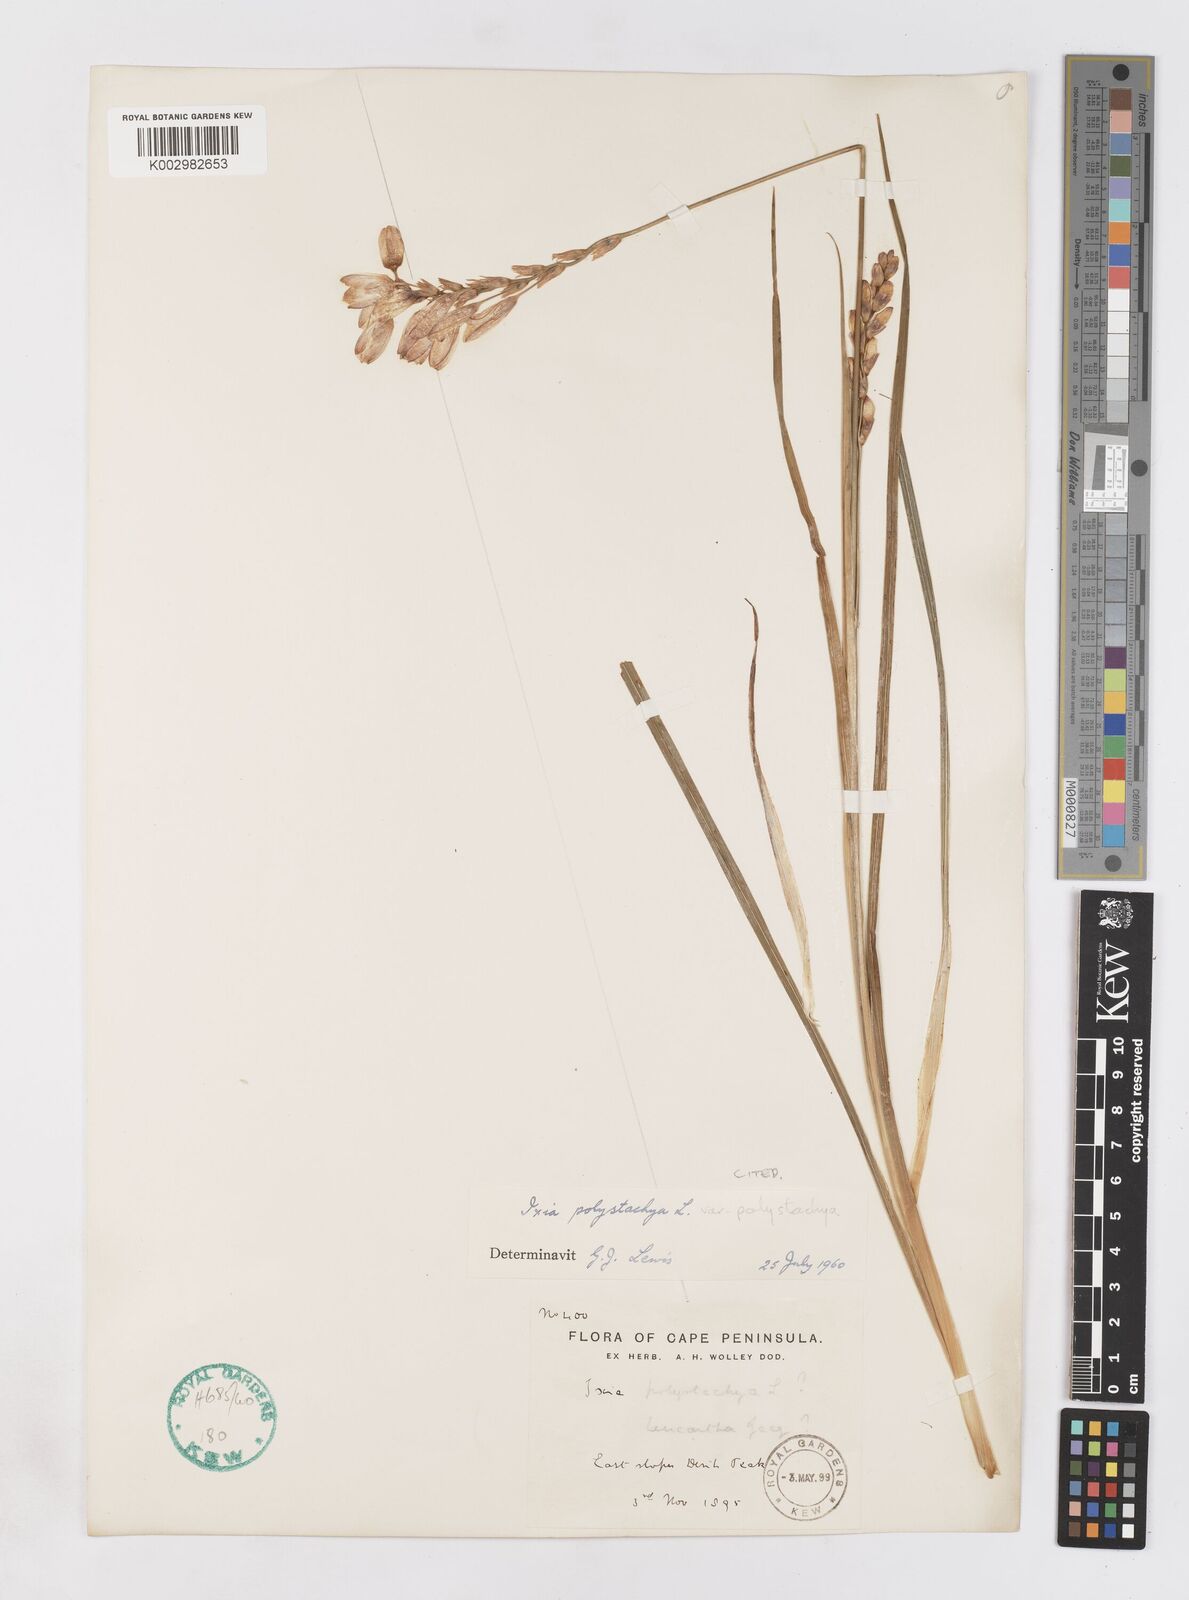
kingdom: Plantae
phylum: Tracheophyta
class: Liliopsida
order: Asparagales
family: Iridaceae
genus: Ixia
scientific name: Ixia polystachya
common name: White-and-yellow-flower cornlily
